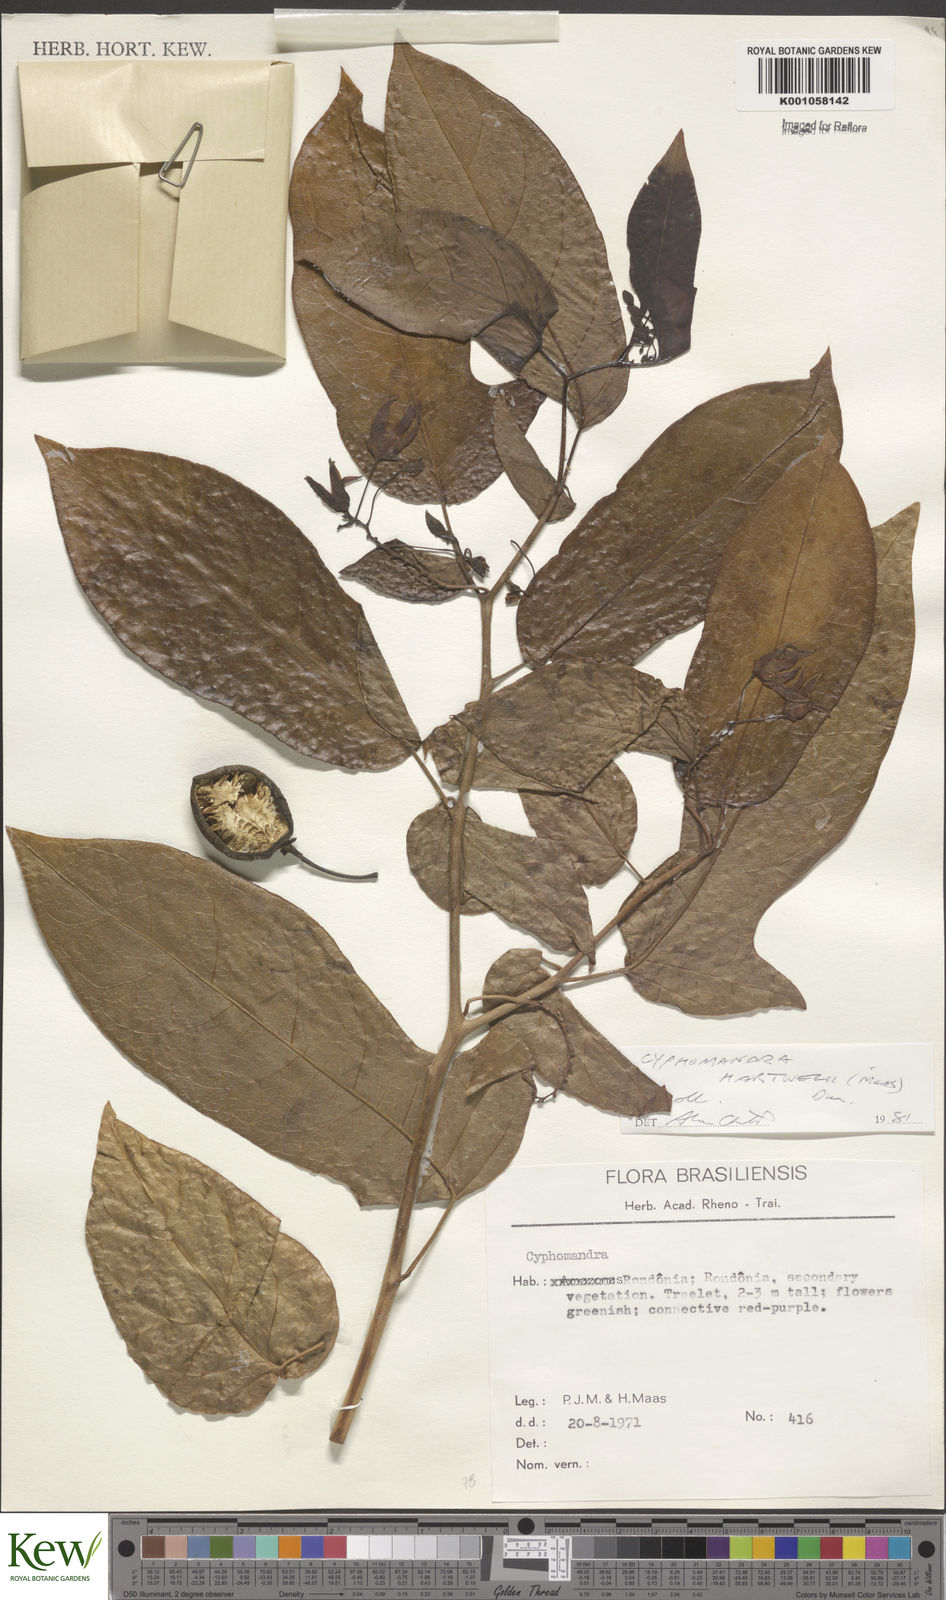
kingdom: Plantae
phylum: Tracheophyta
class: Magnoliopsida
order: Solanales
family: Solanaceae
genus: Solanum
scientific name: Solanum splendens
